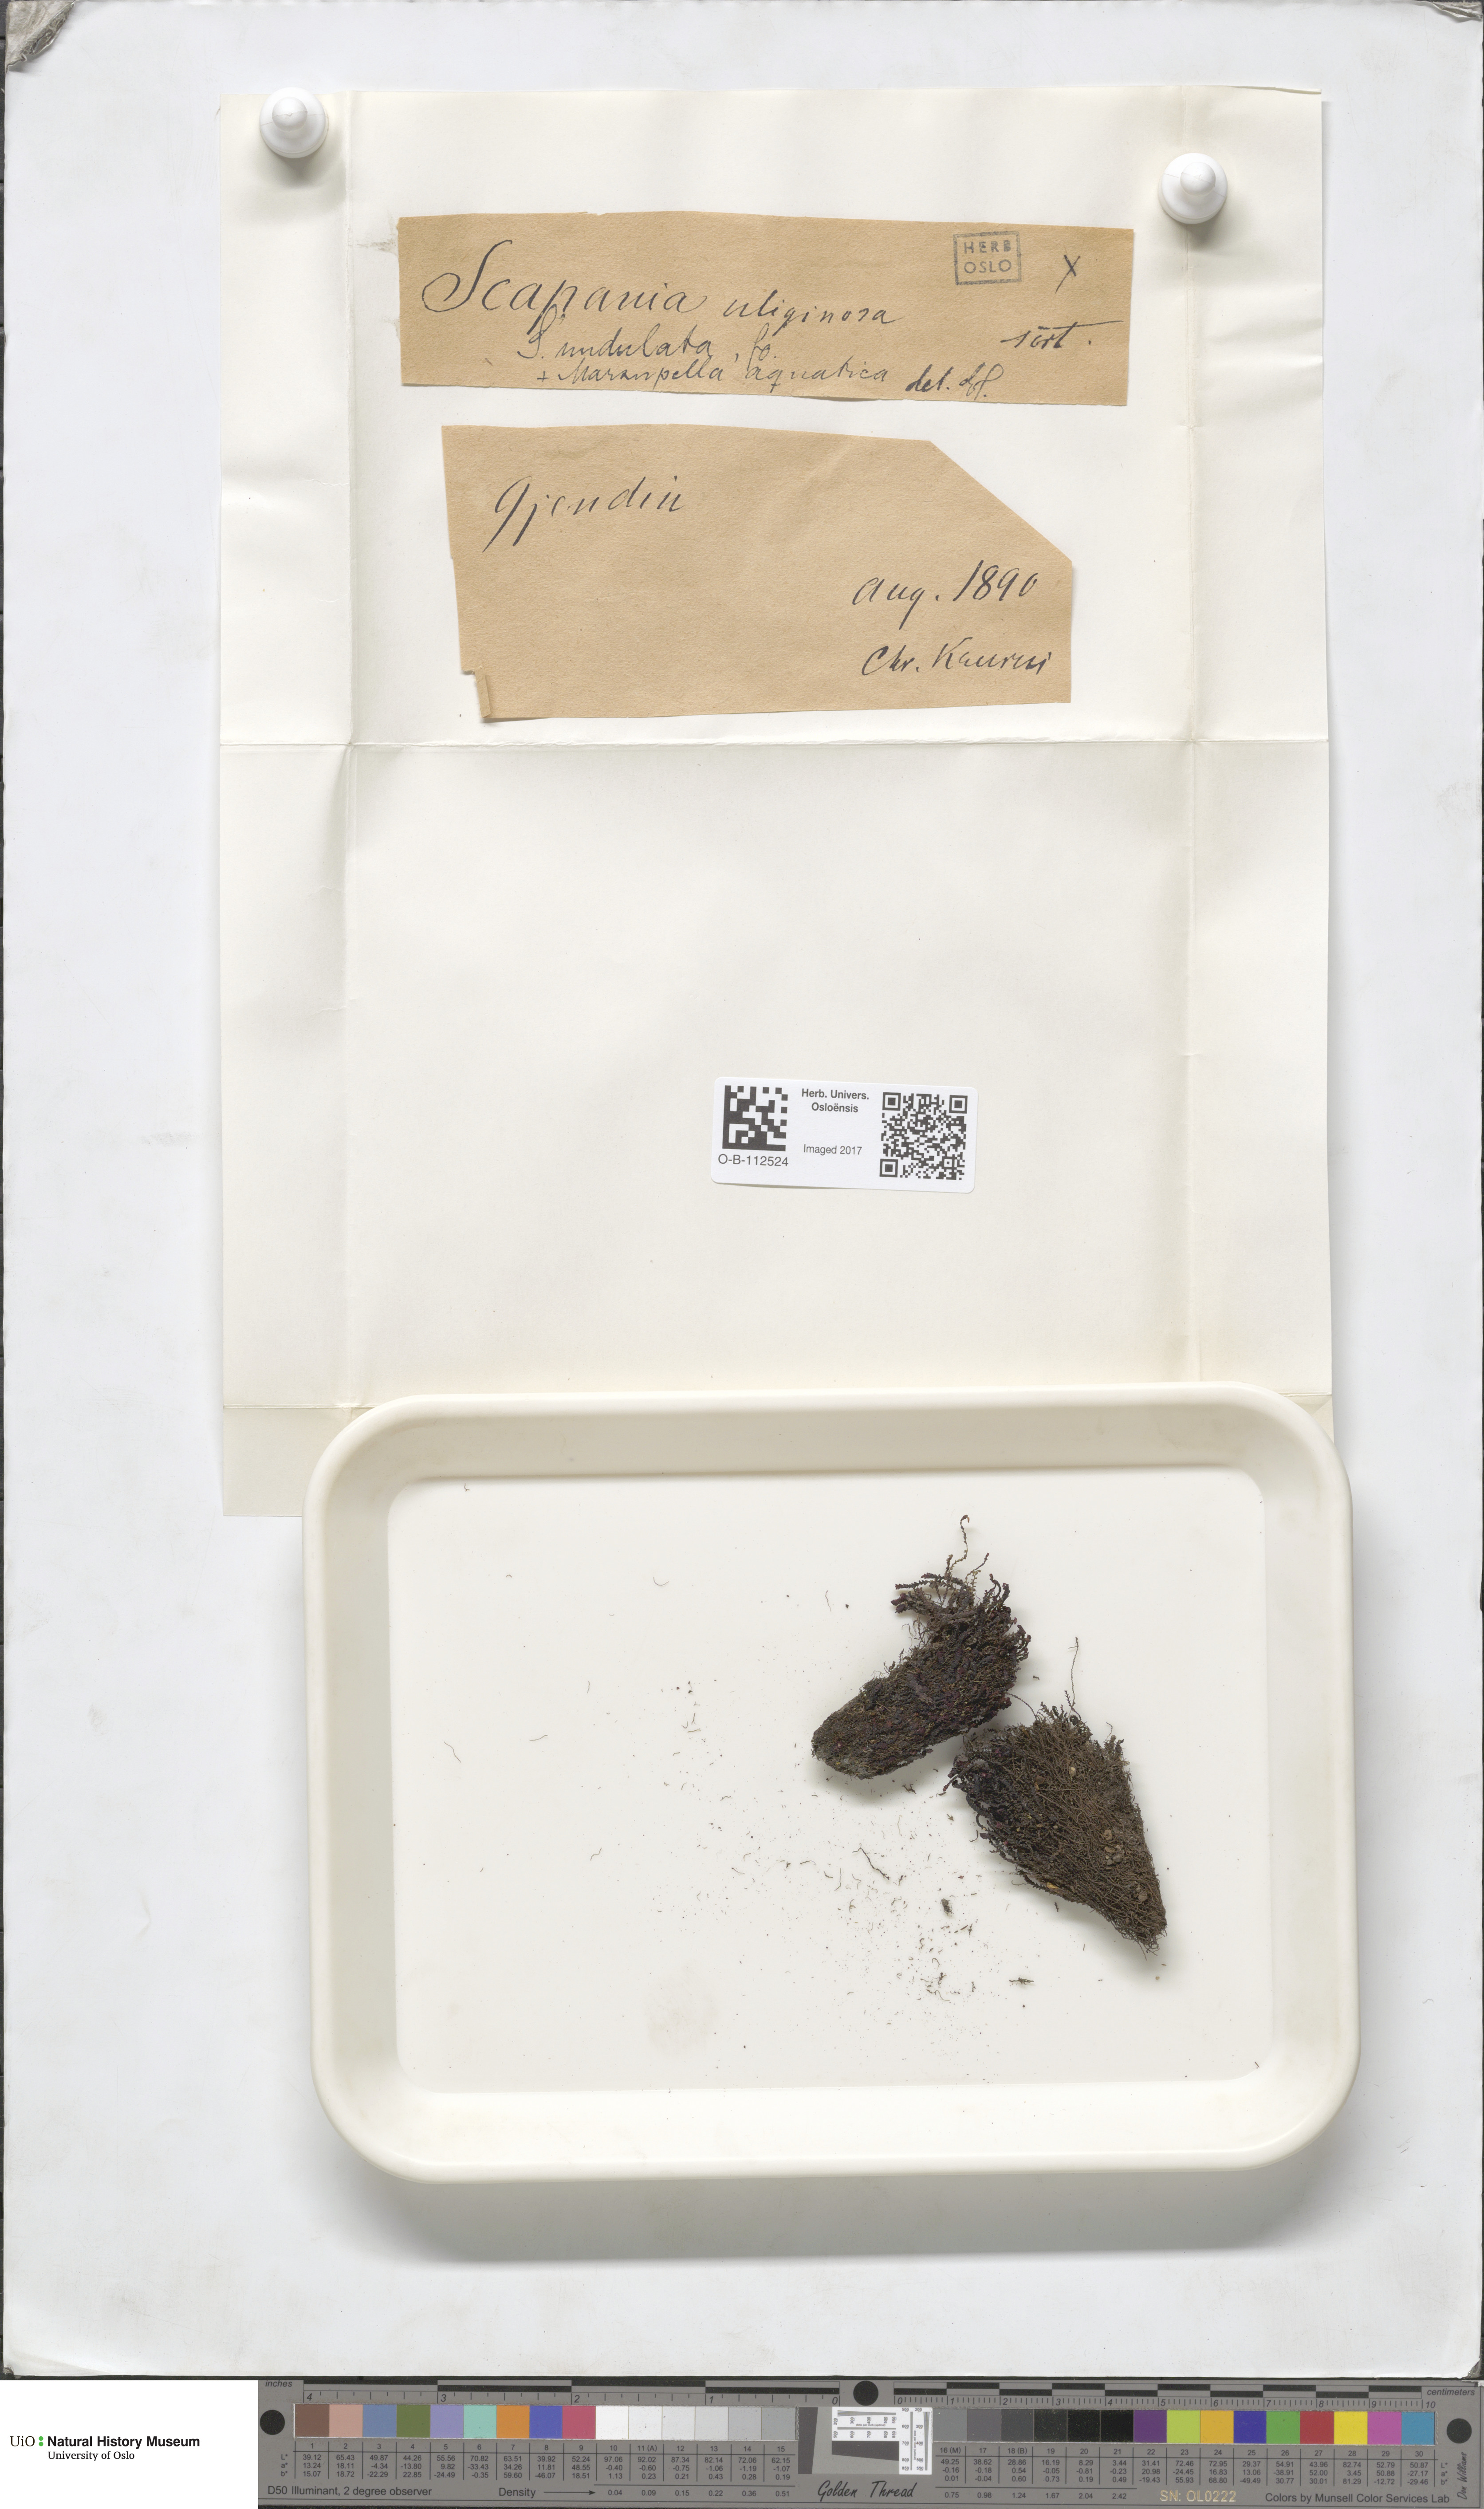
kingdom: Plantae
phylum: Marchantiophyta
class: Jungermanniopsida
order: Jungermanniales
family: Scapaniaceae
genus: Scapania
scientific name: Scapania undulata
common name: Water earwort
